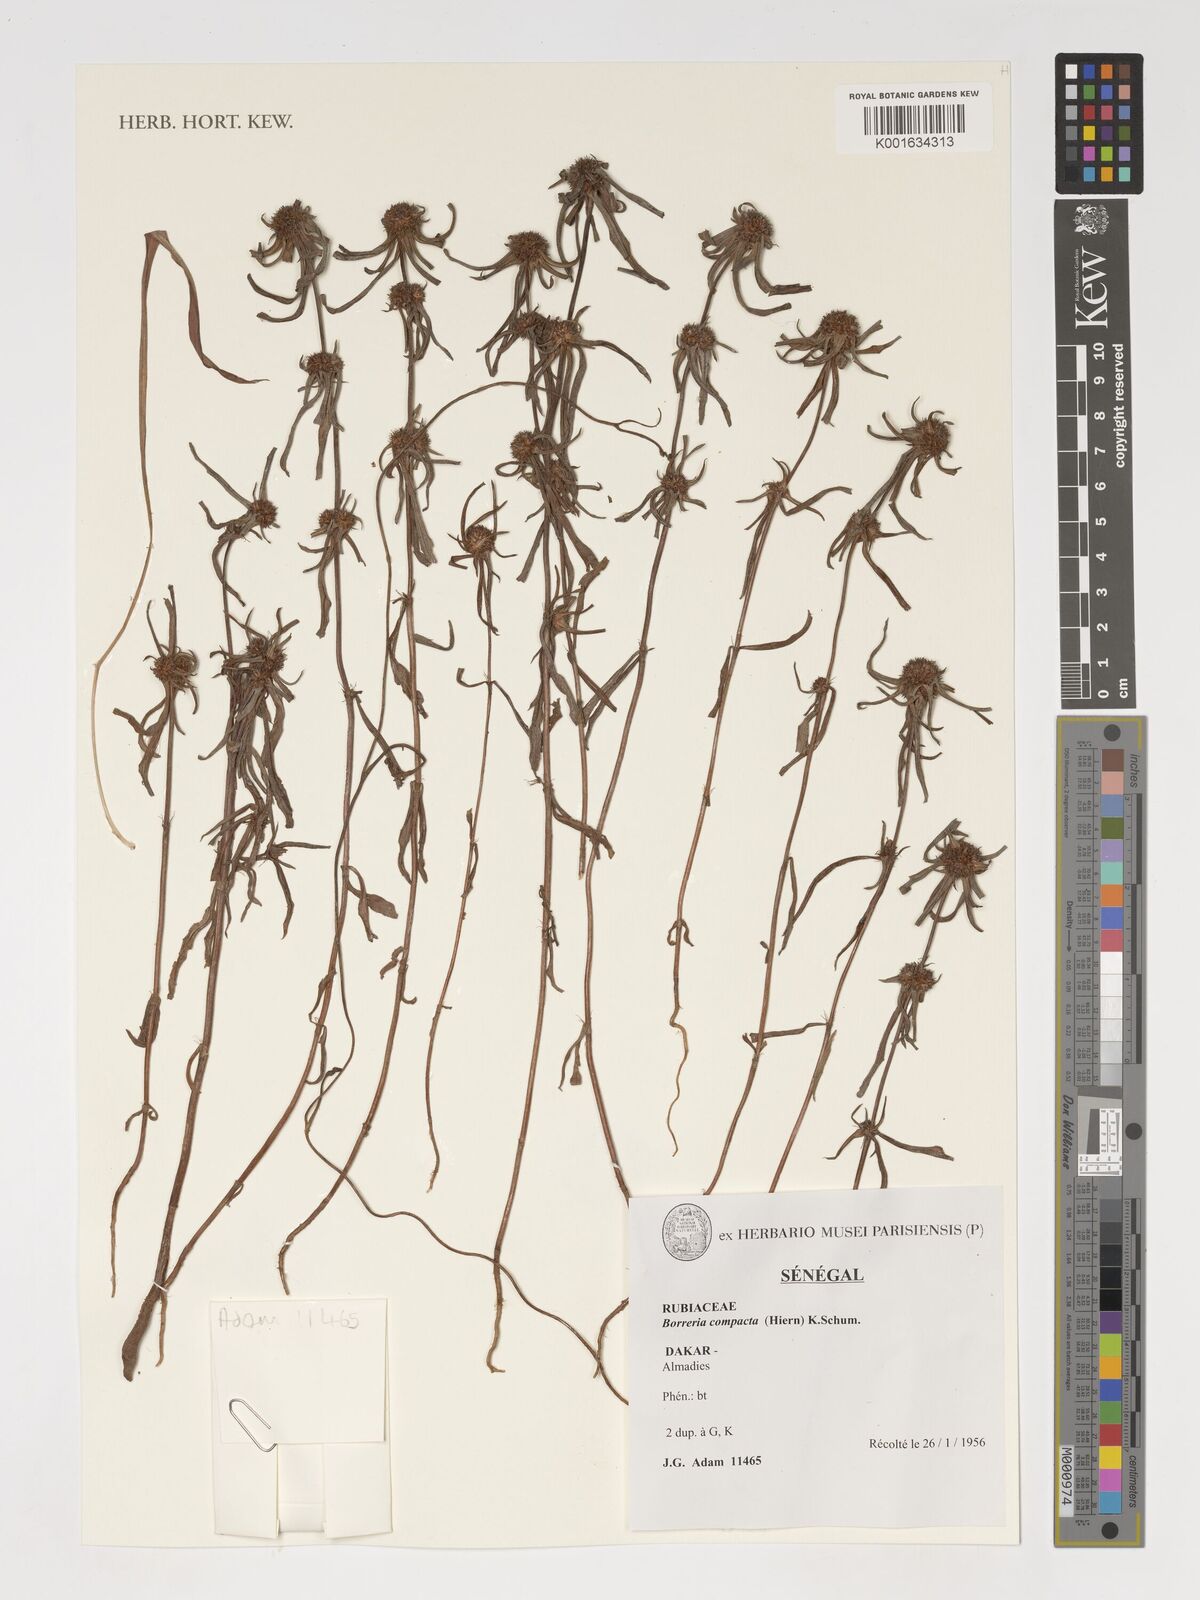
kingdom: Plantae
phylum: Tracheophyta
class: Magnoliopsida
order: Gentianales
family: Rubiaceae
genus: Spermacoce
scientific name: Spermacoce chaetocephala
